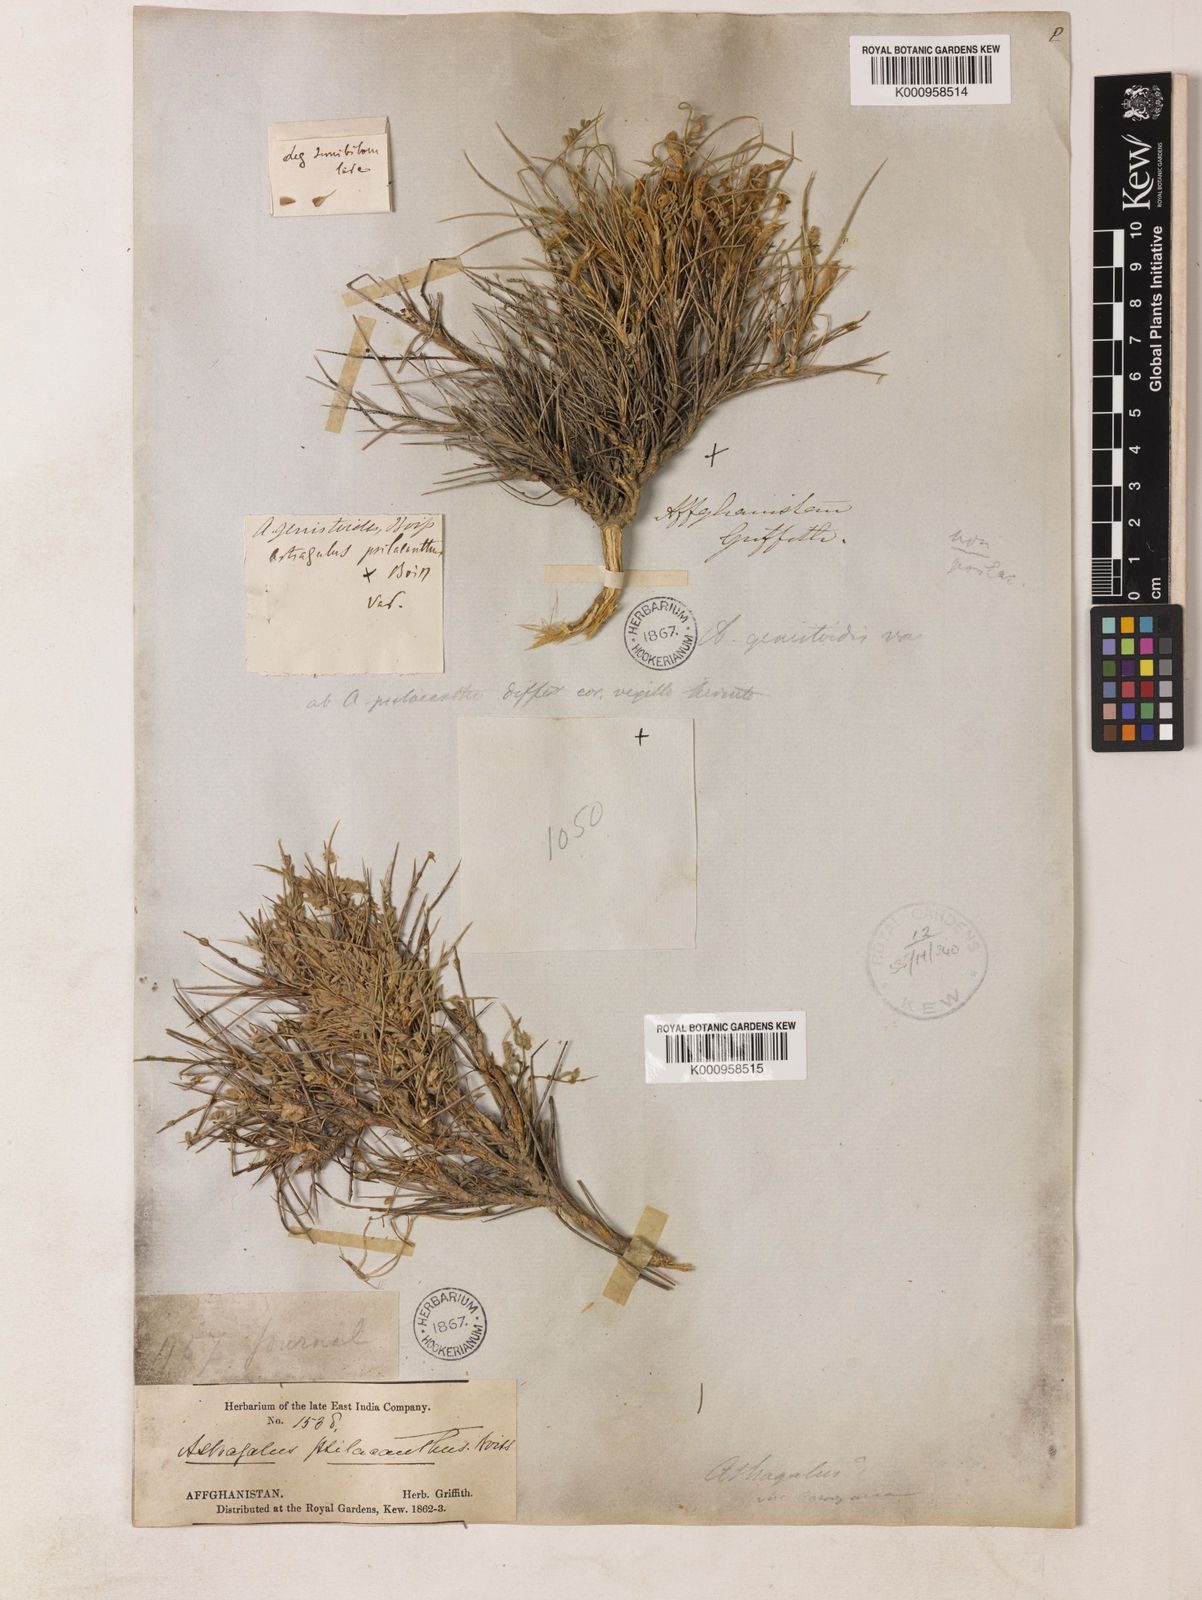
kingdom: Plantae
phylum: Tracheophyta
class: Magnoliopsida
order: Fabales
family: Fabaceae
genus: Astragalus
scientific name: Astragalus leptus
